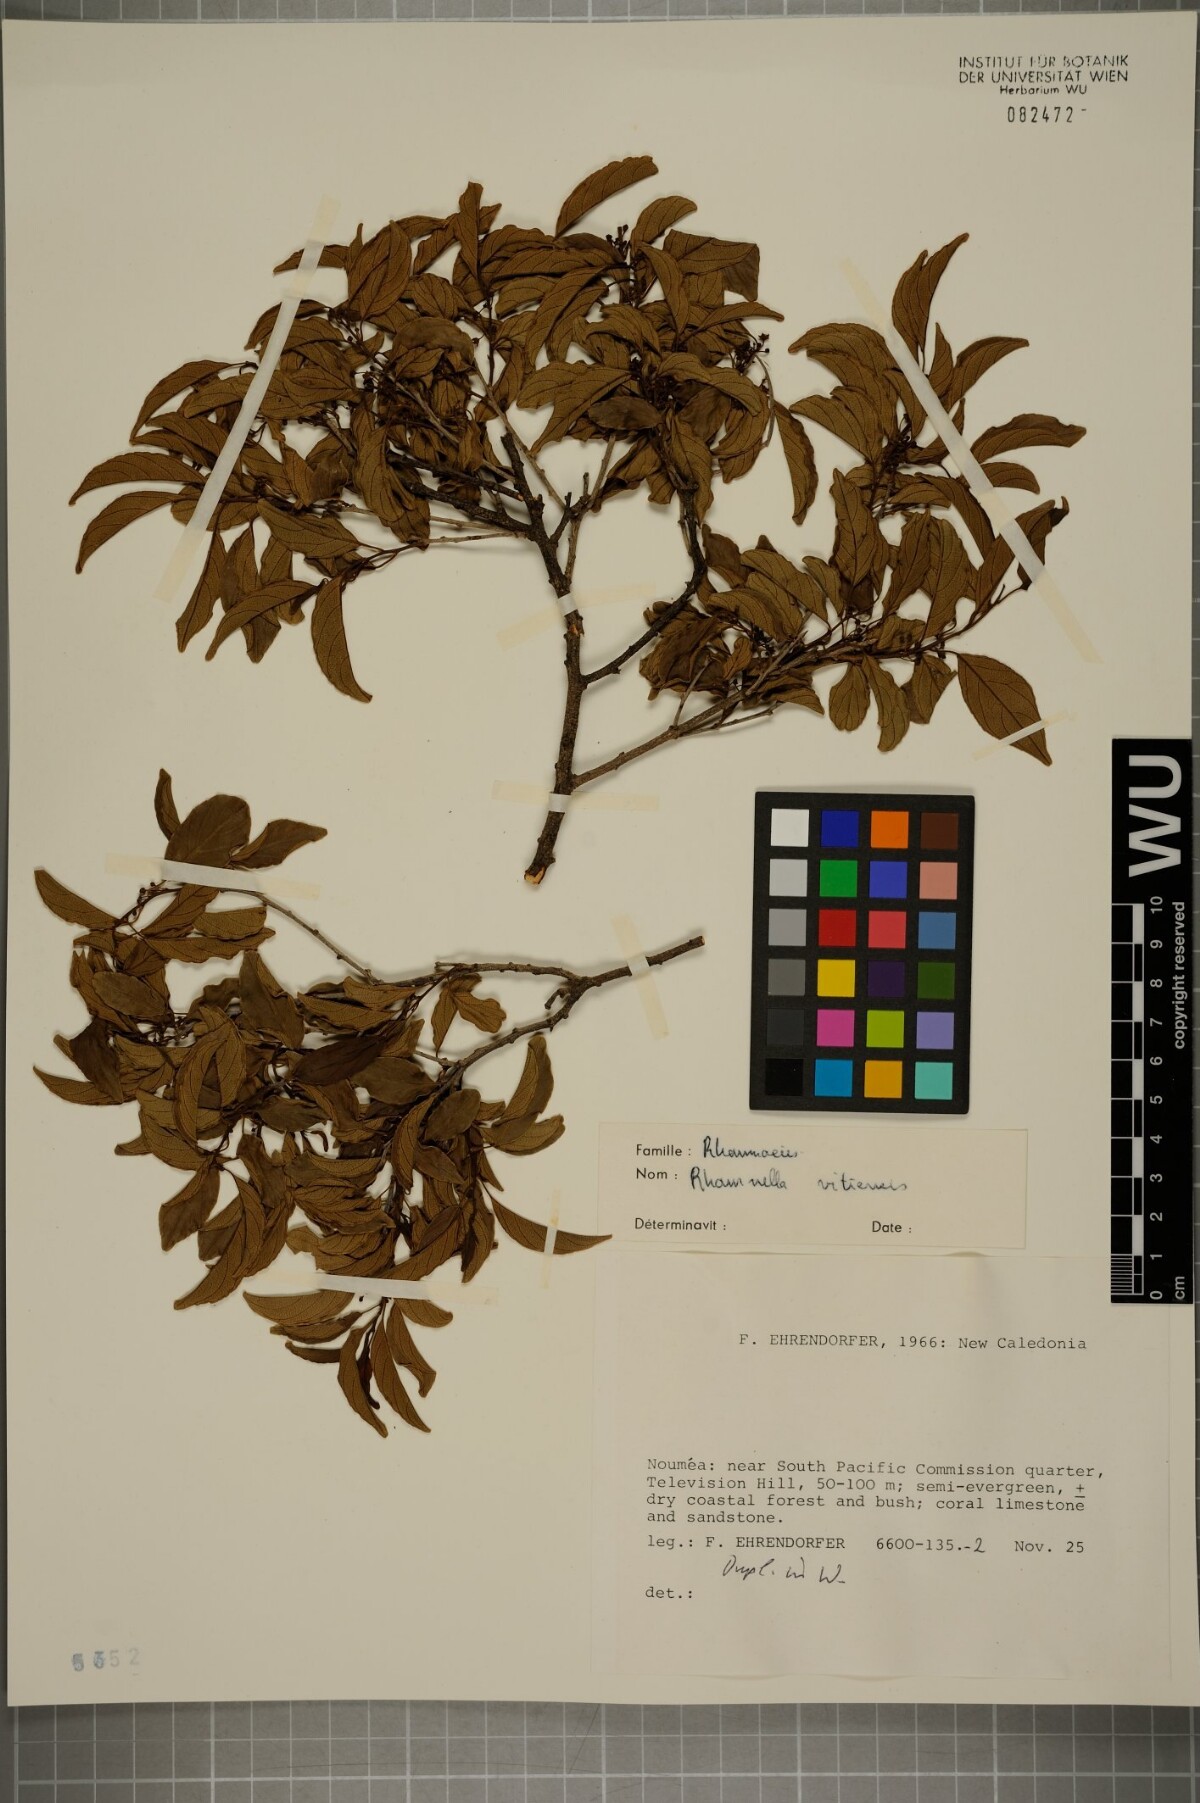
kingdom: Plantae
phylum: Tracheophyta
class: Magnoliopsida
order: Rosales
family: Rhamnaceae
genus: Dallachya
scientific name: Dallachya vitiensis
